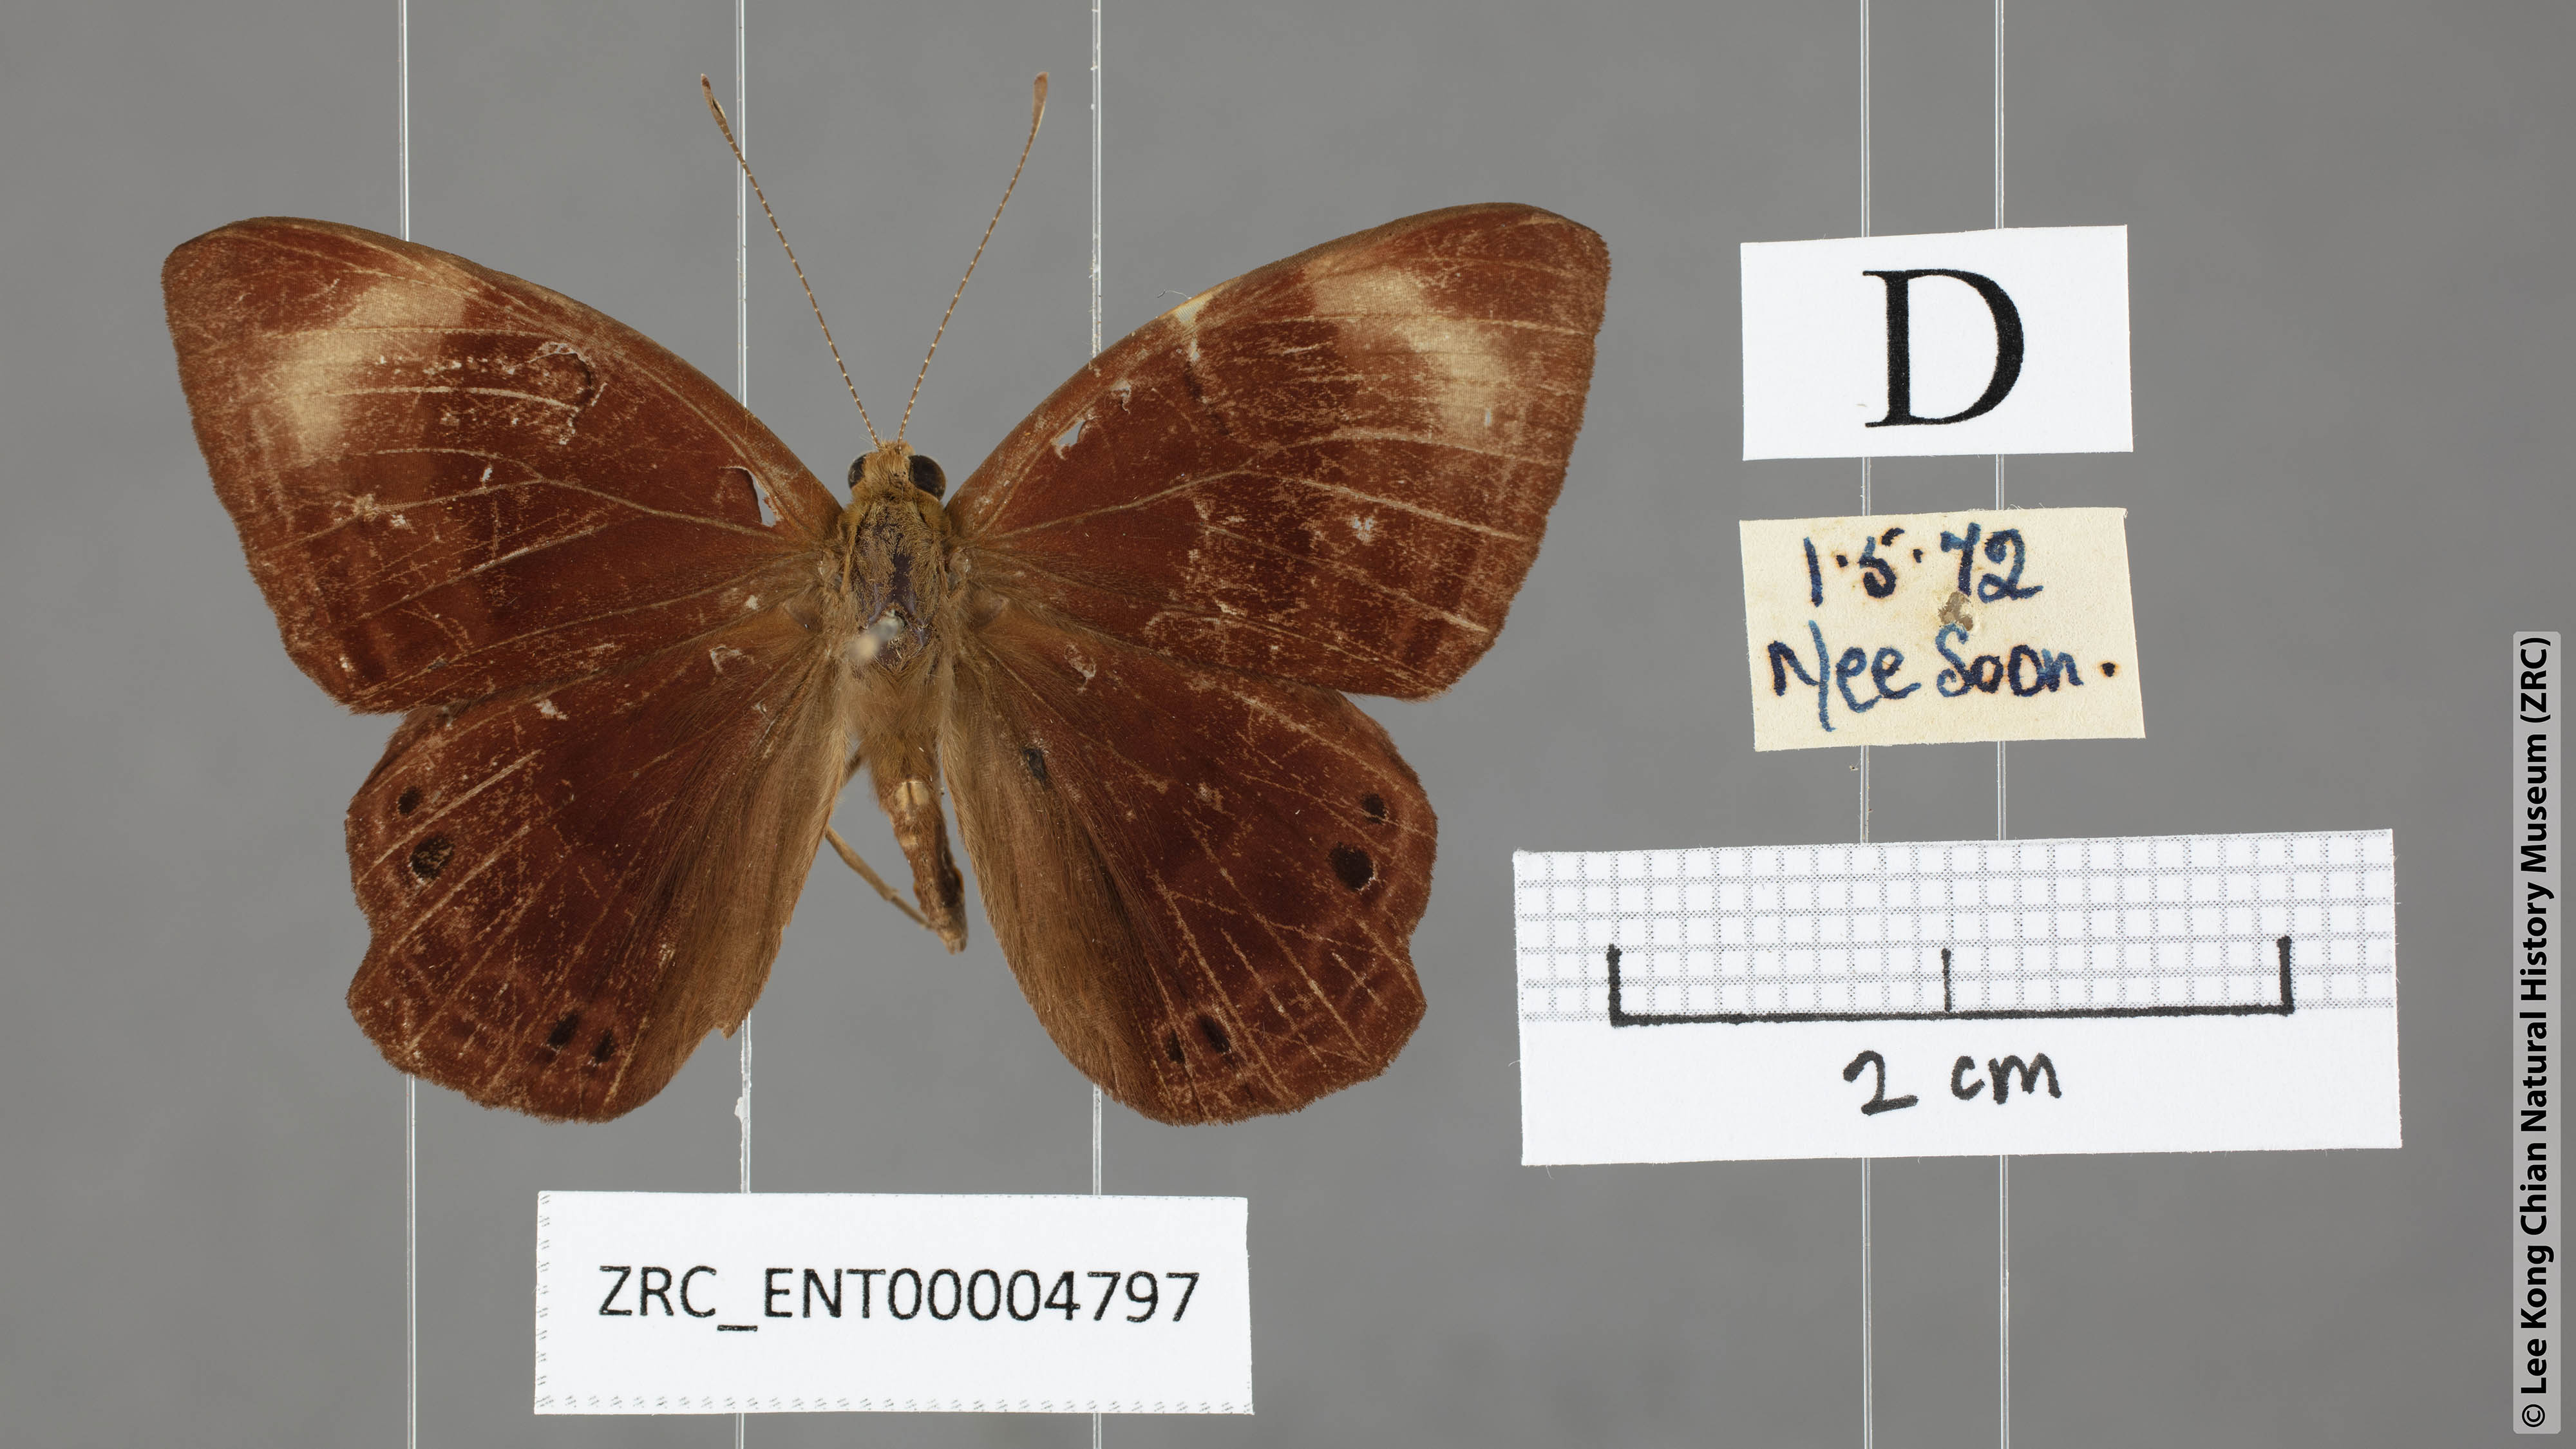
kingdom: Animalia
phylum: Arthropoda
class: Insecta
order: Lepidoptera
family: Lycaenidae
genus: Abisara
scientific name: Abisara geza
